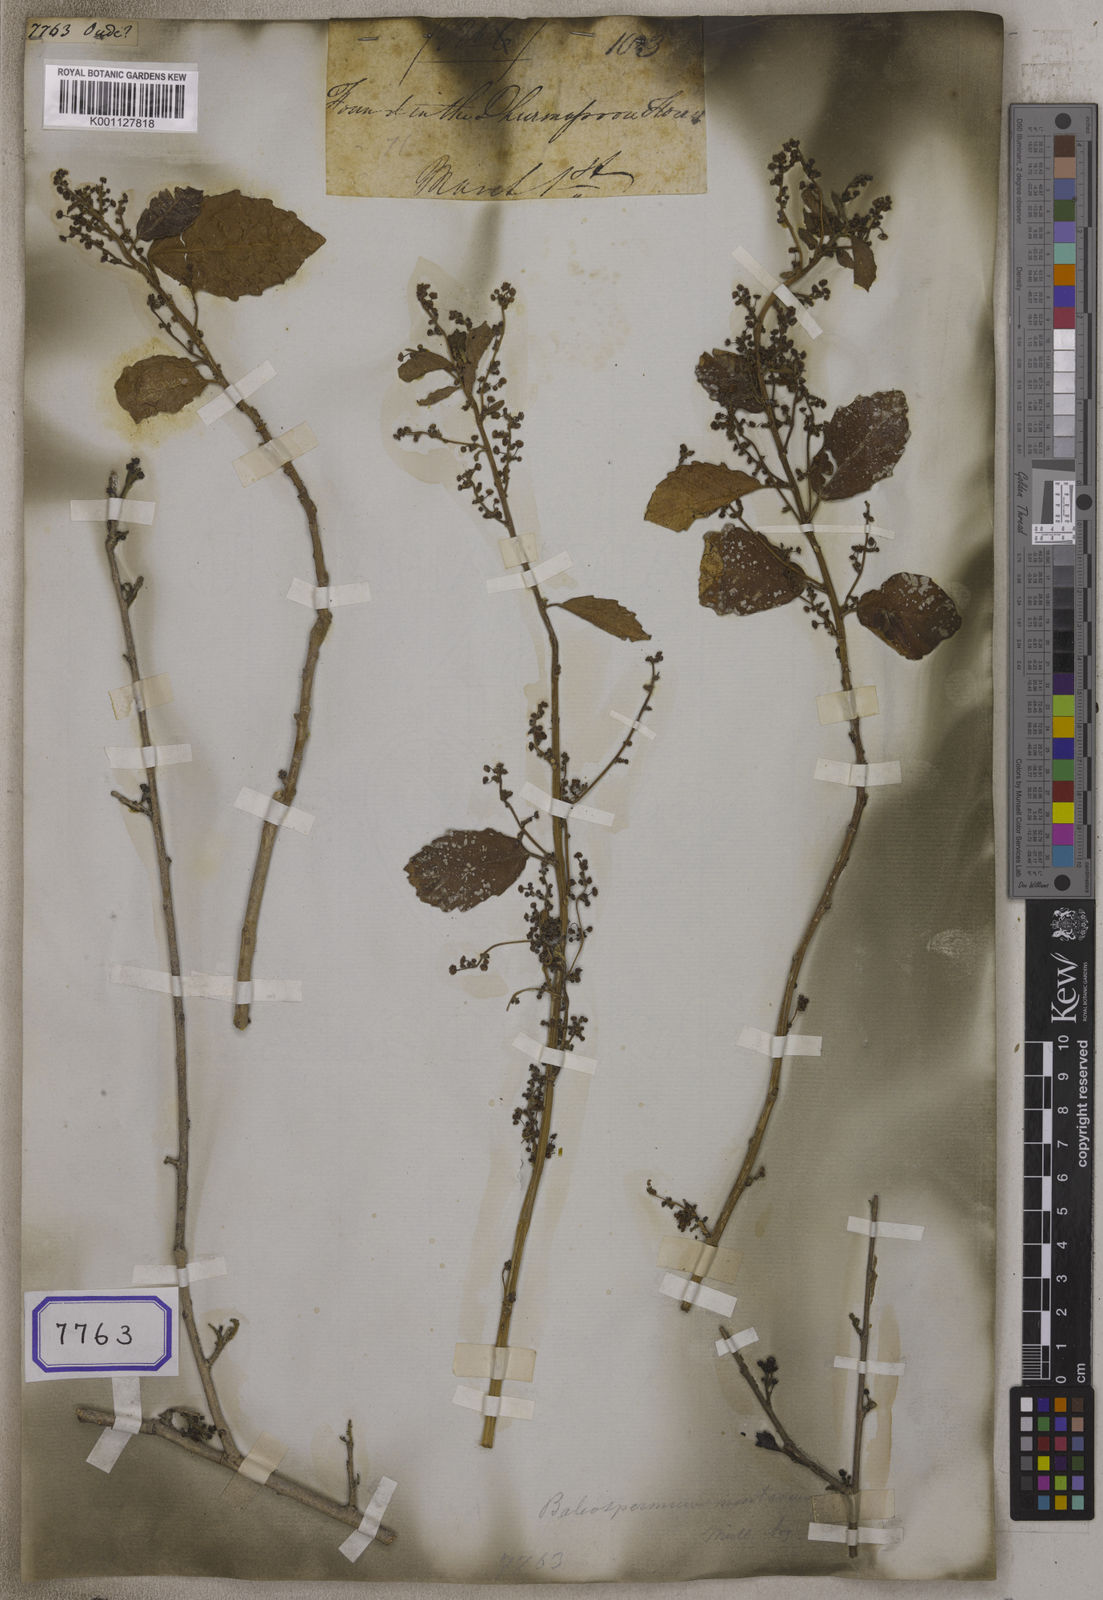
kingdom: Plantae
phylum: Tracheophyta
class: Magnoliopsida
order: Malpighiales
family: Euphorbiaceae
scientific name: Euphorbiaceae
